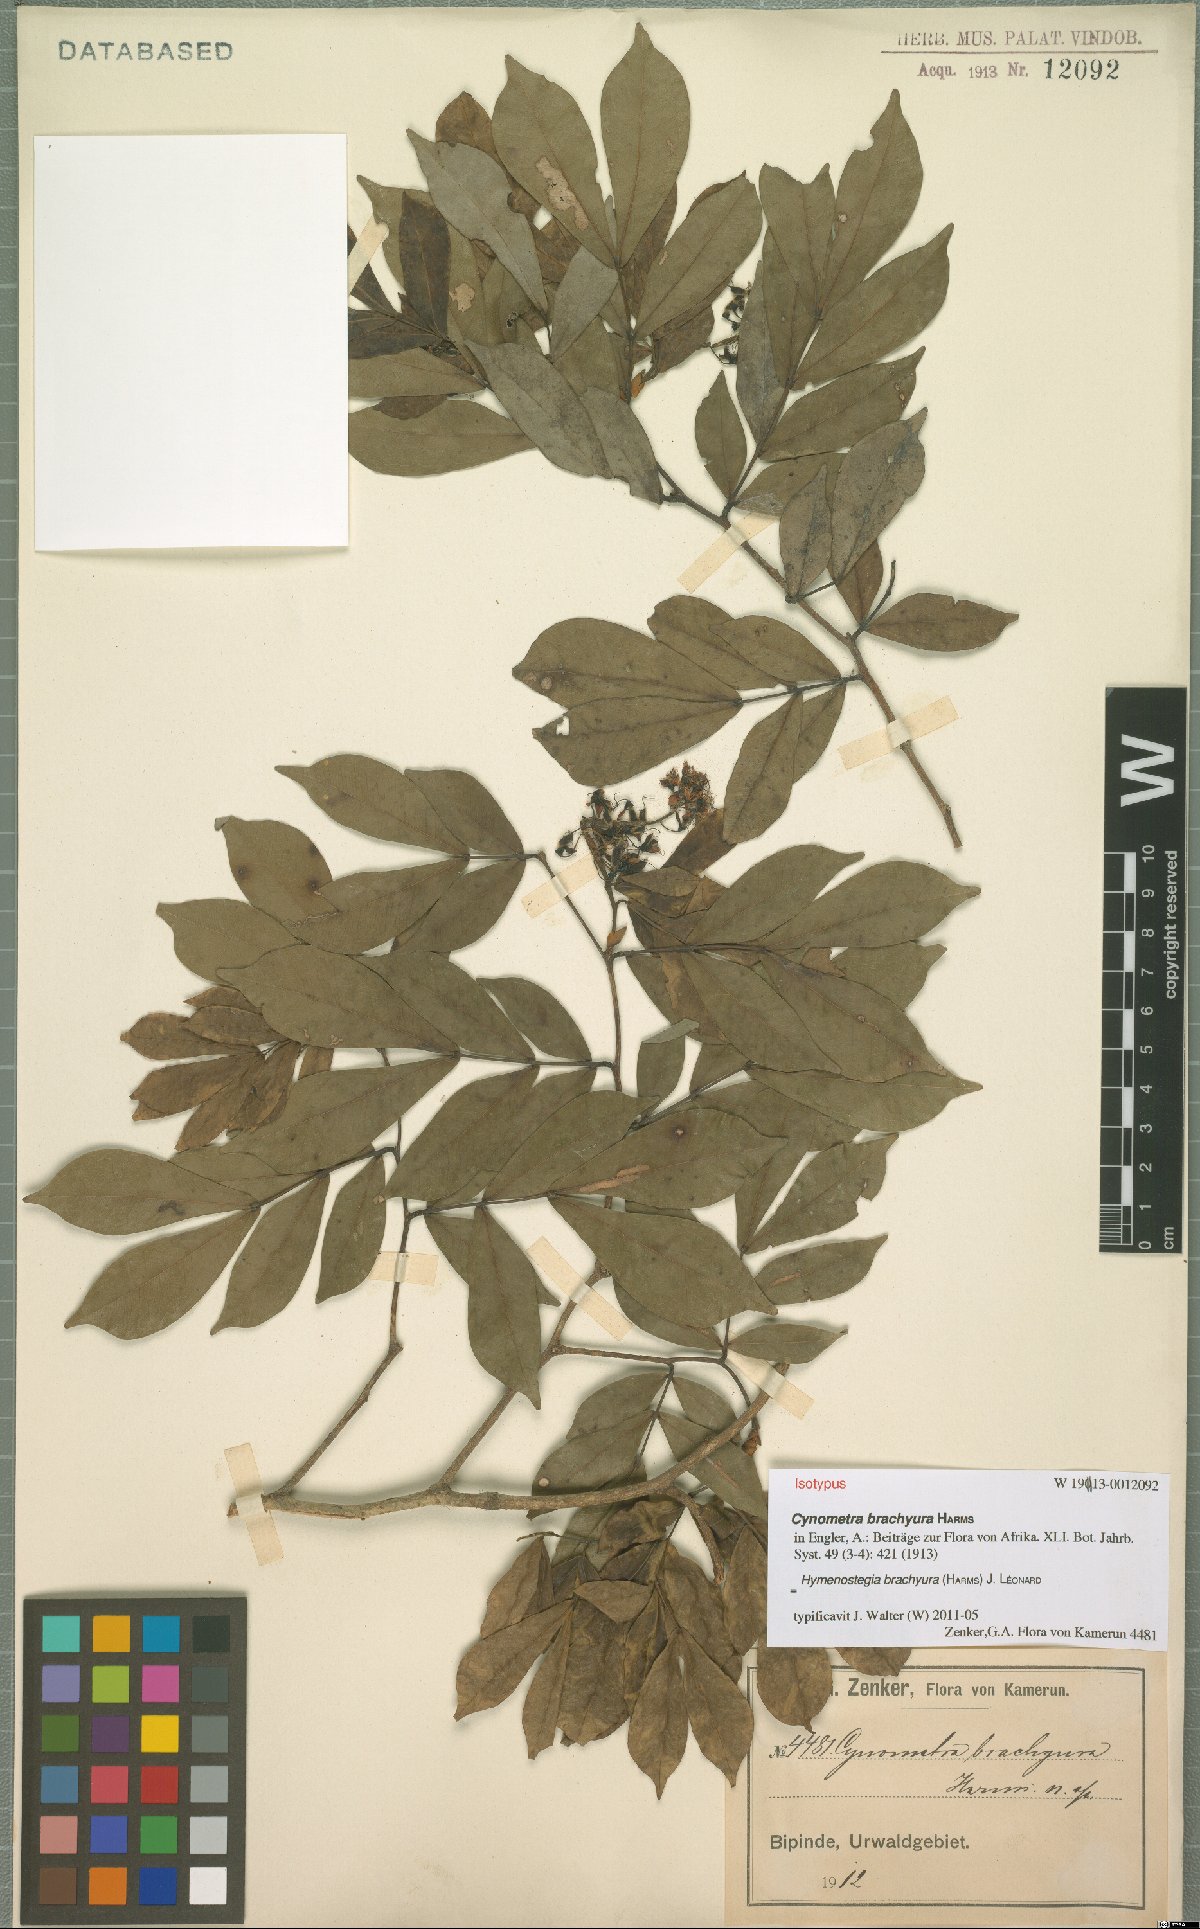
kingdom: Plantae
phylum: Tracheophyta
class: Magnoliopsida
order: Fabales
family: Fabaceae
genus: Hymenostegia
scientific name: Hymenostegia brachyura
